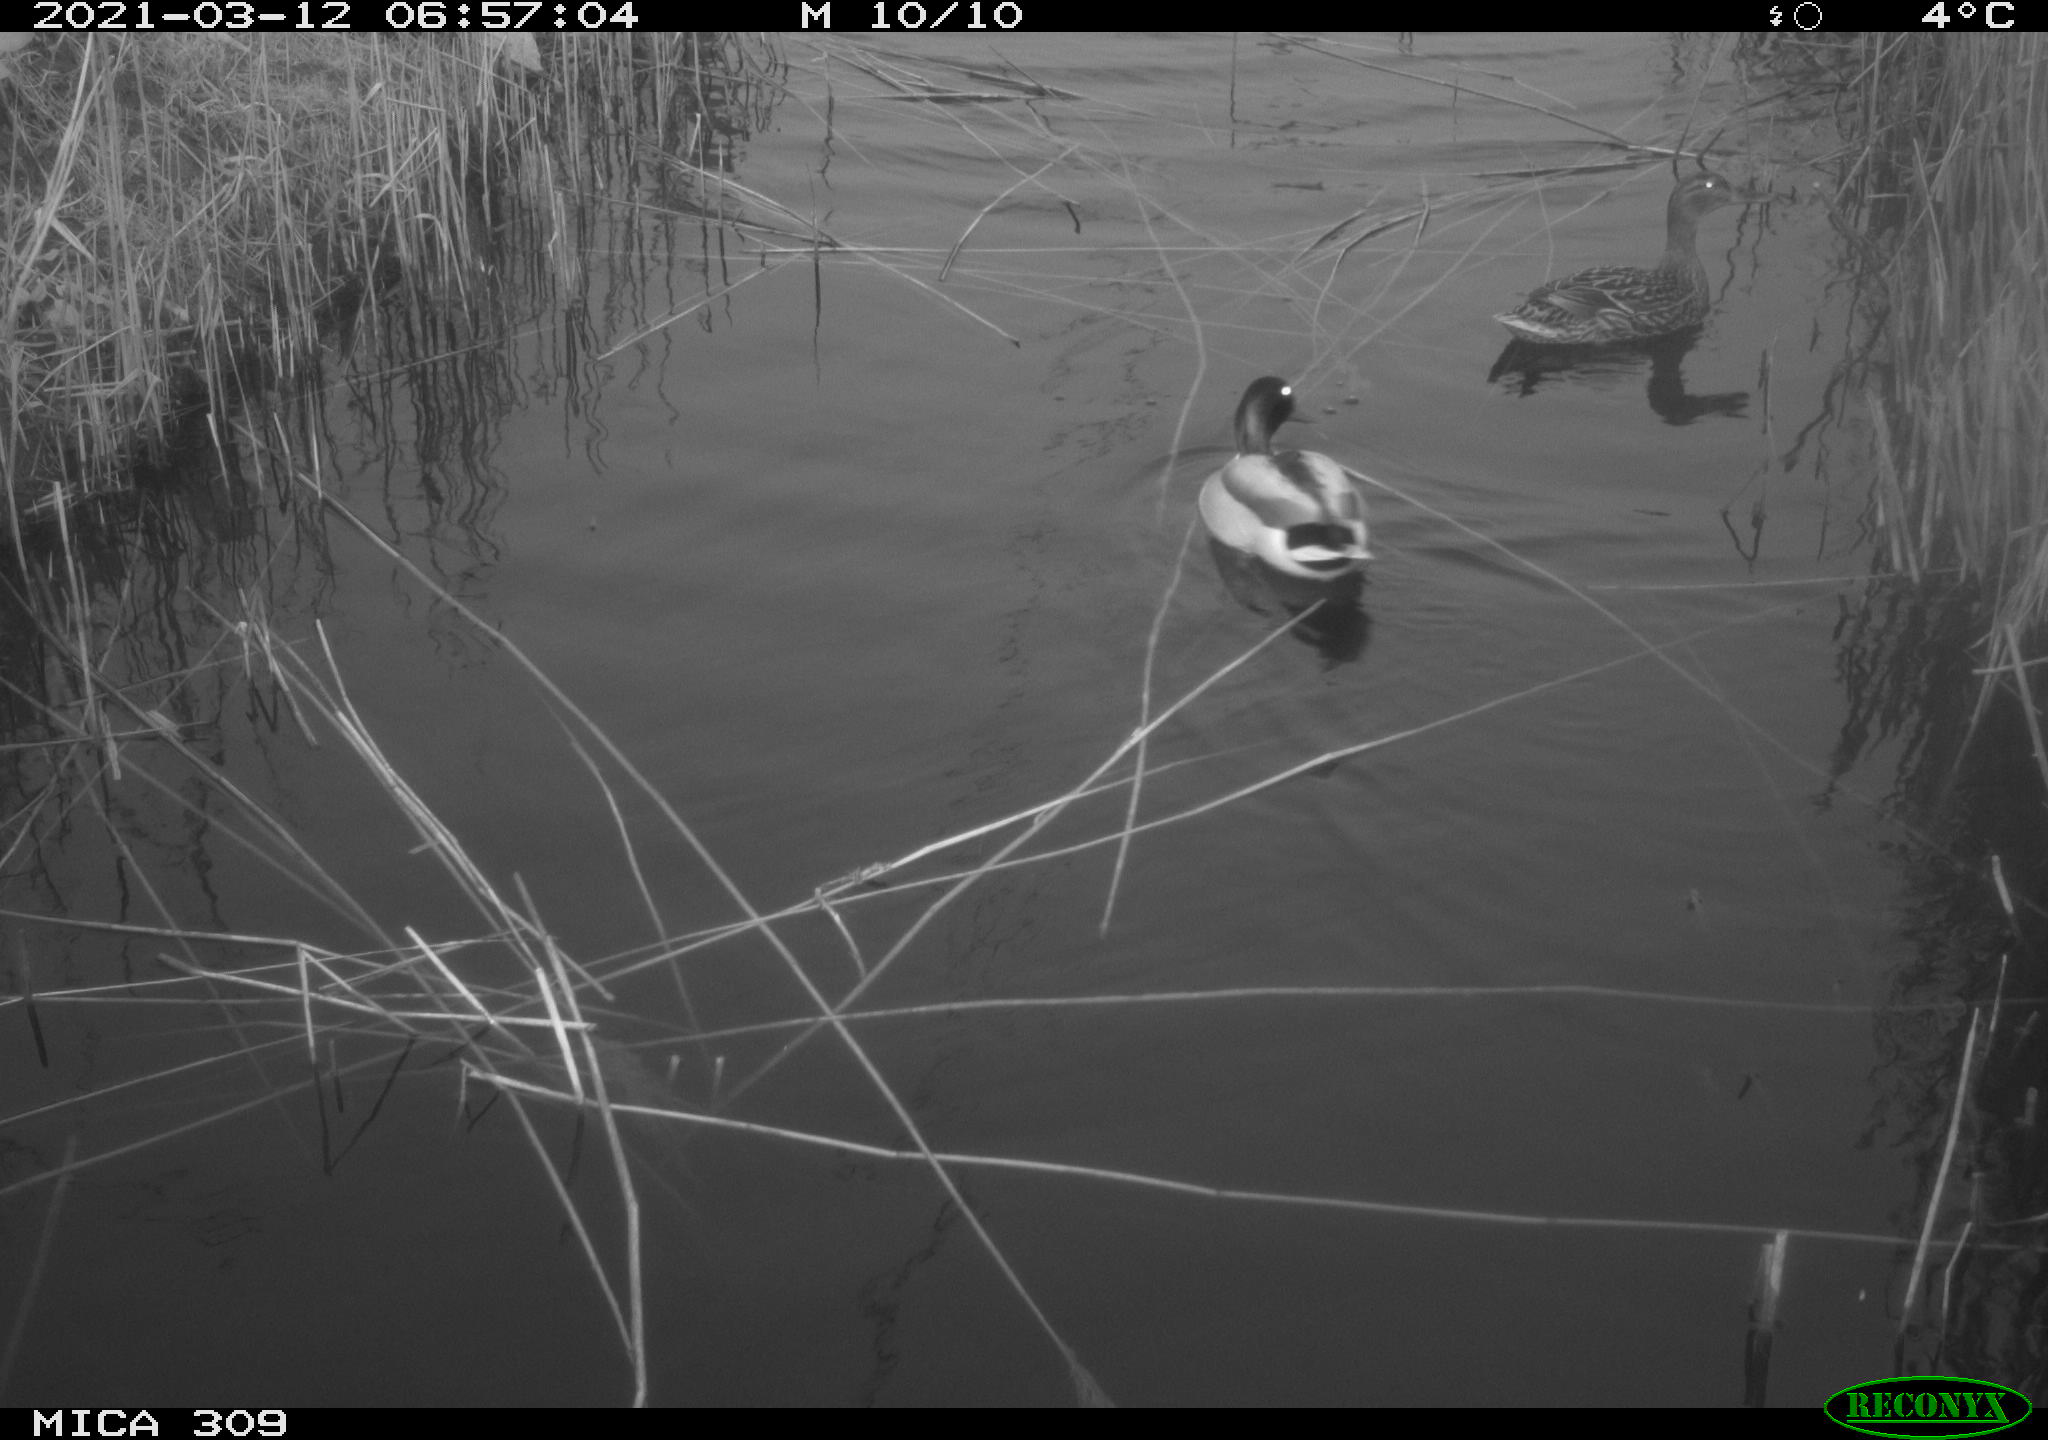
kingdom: Animalia
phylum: Chordata
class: Aves
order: Anseriformes
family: Anatidae
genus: Anas
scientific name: Anas platyrhynchos
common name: Mallard
